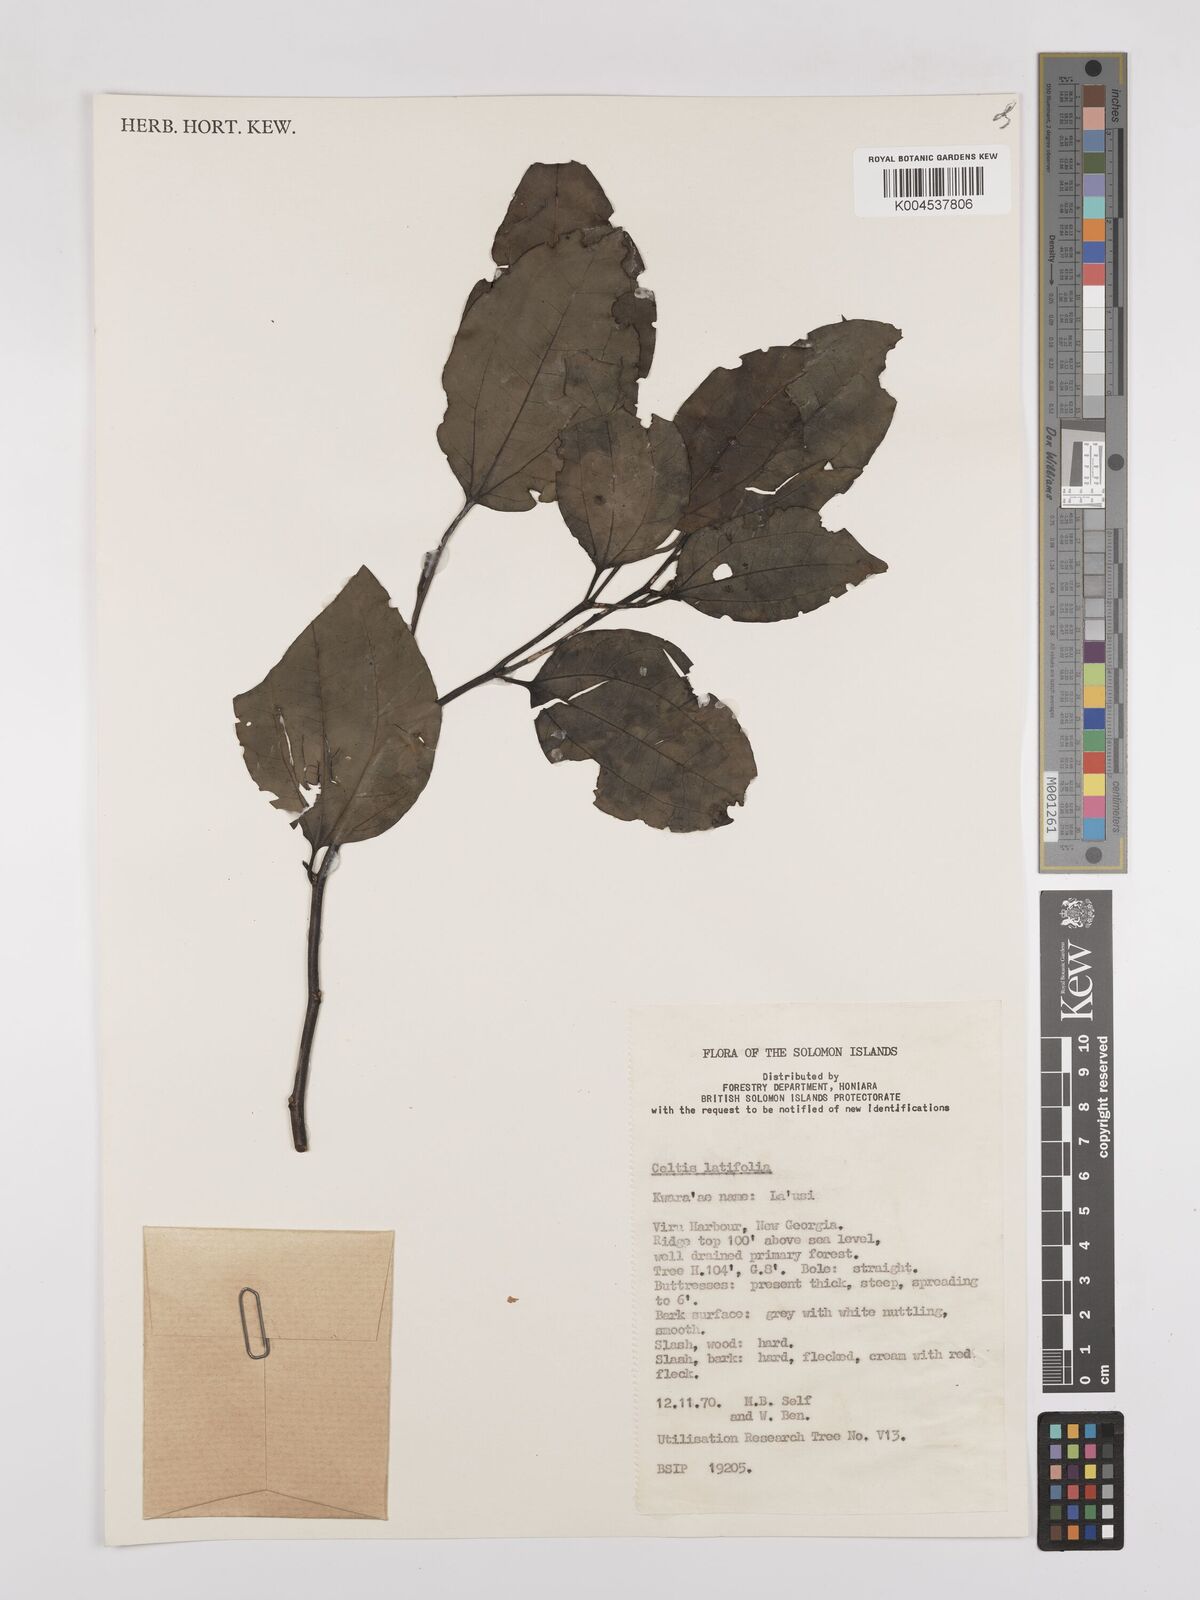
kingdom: Plantae
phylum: Tracheophyta
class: Magnoliopsida
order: Rosales
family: Cannabaceae
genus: Celtis
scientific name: Celtis latifolia
